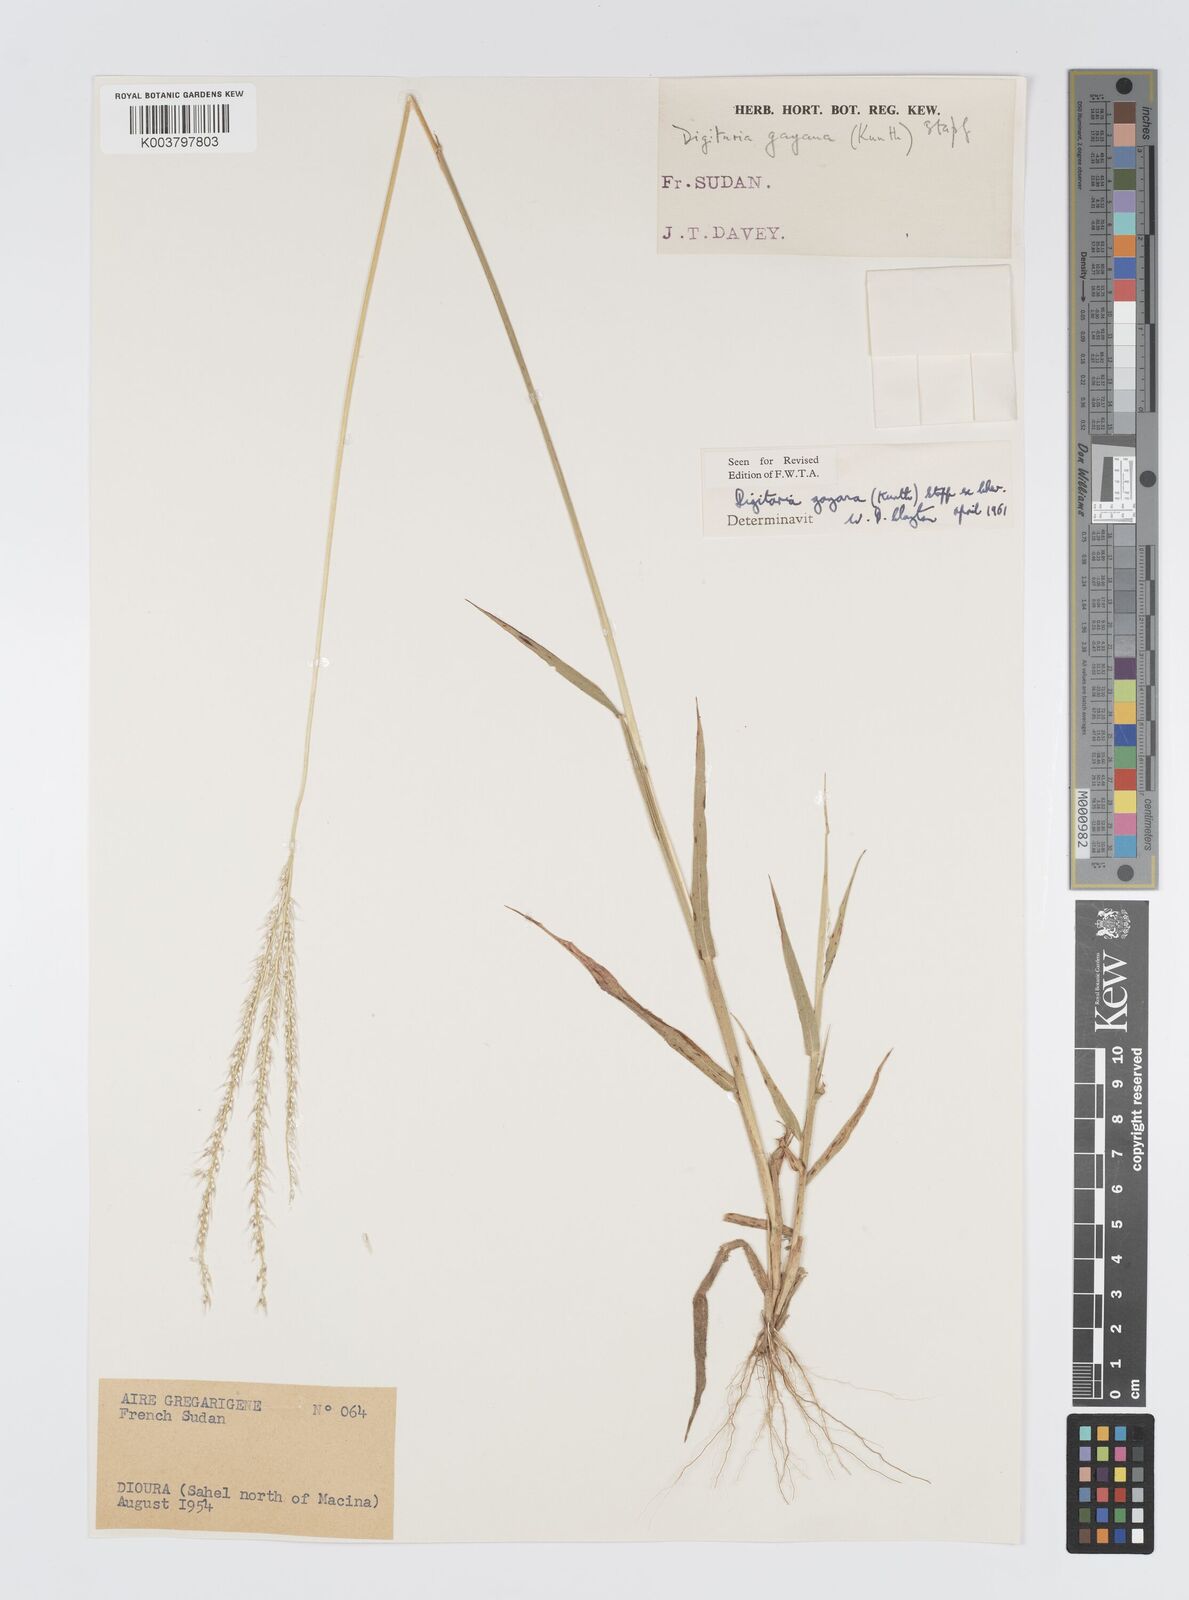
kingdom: Plantae
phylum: Tracheophyta
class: Liliopsida
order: Poales
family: Poaceae
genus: Digitaria
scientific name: Digitaria gayana
